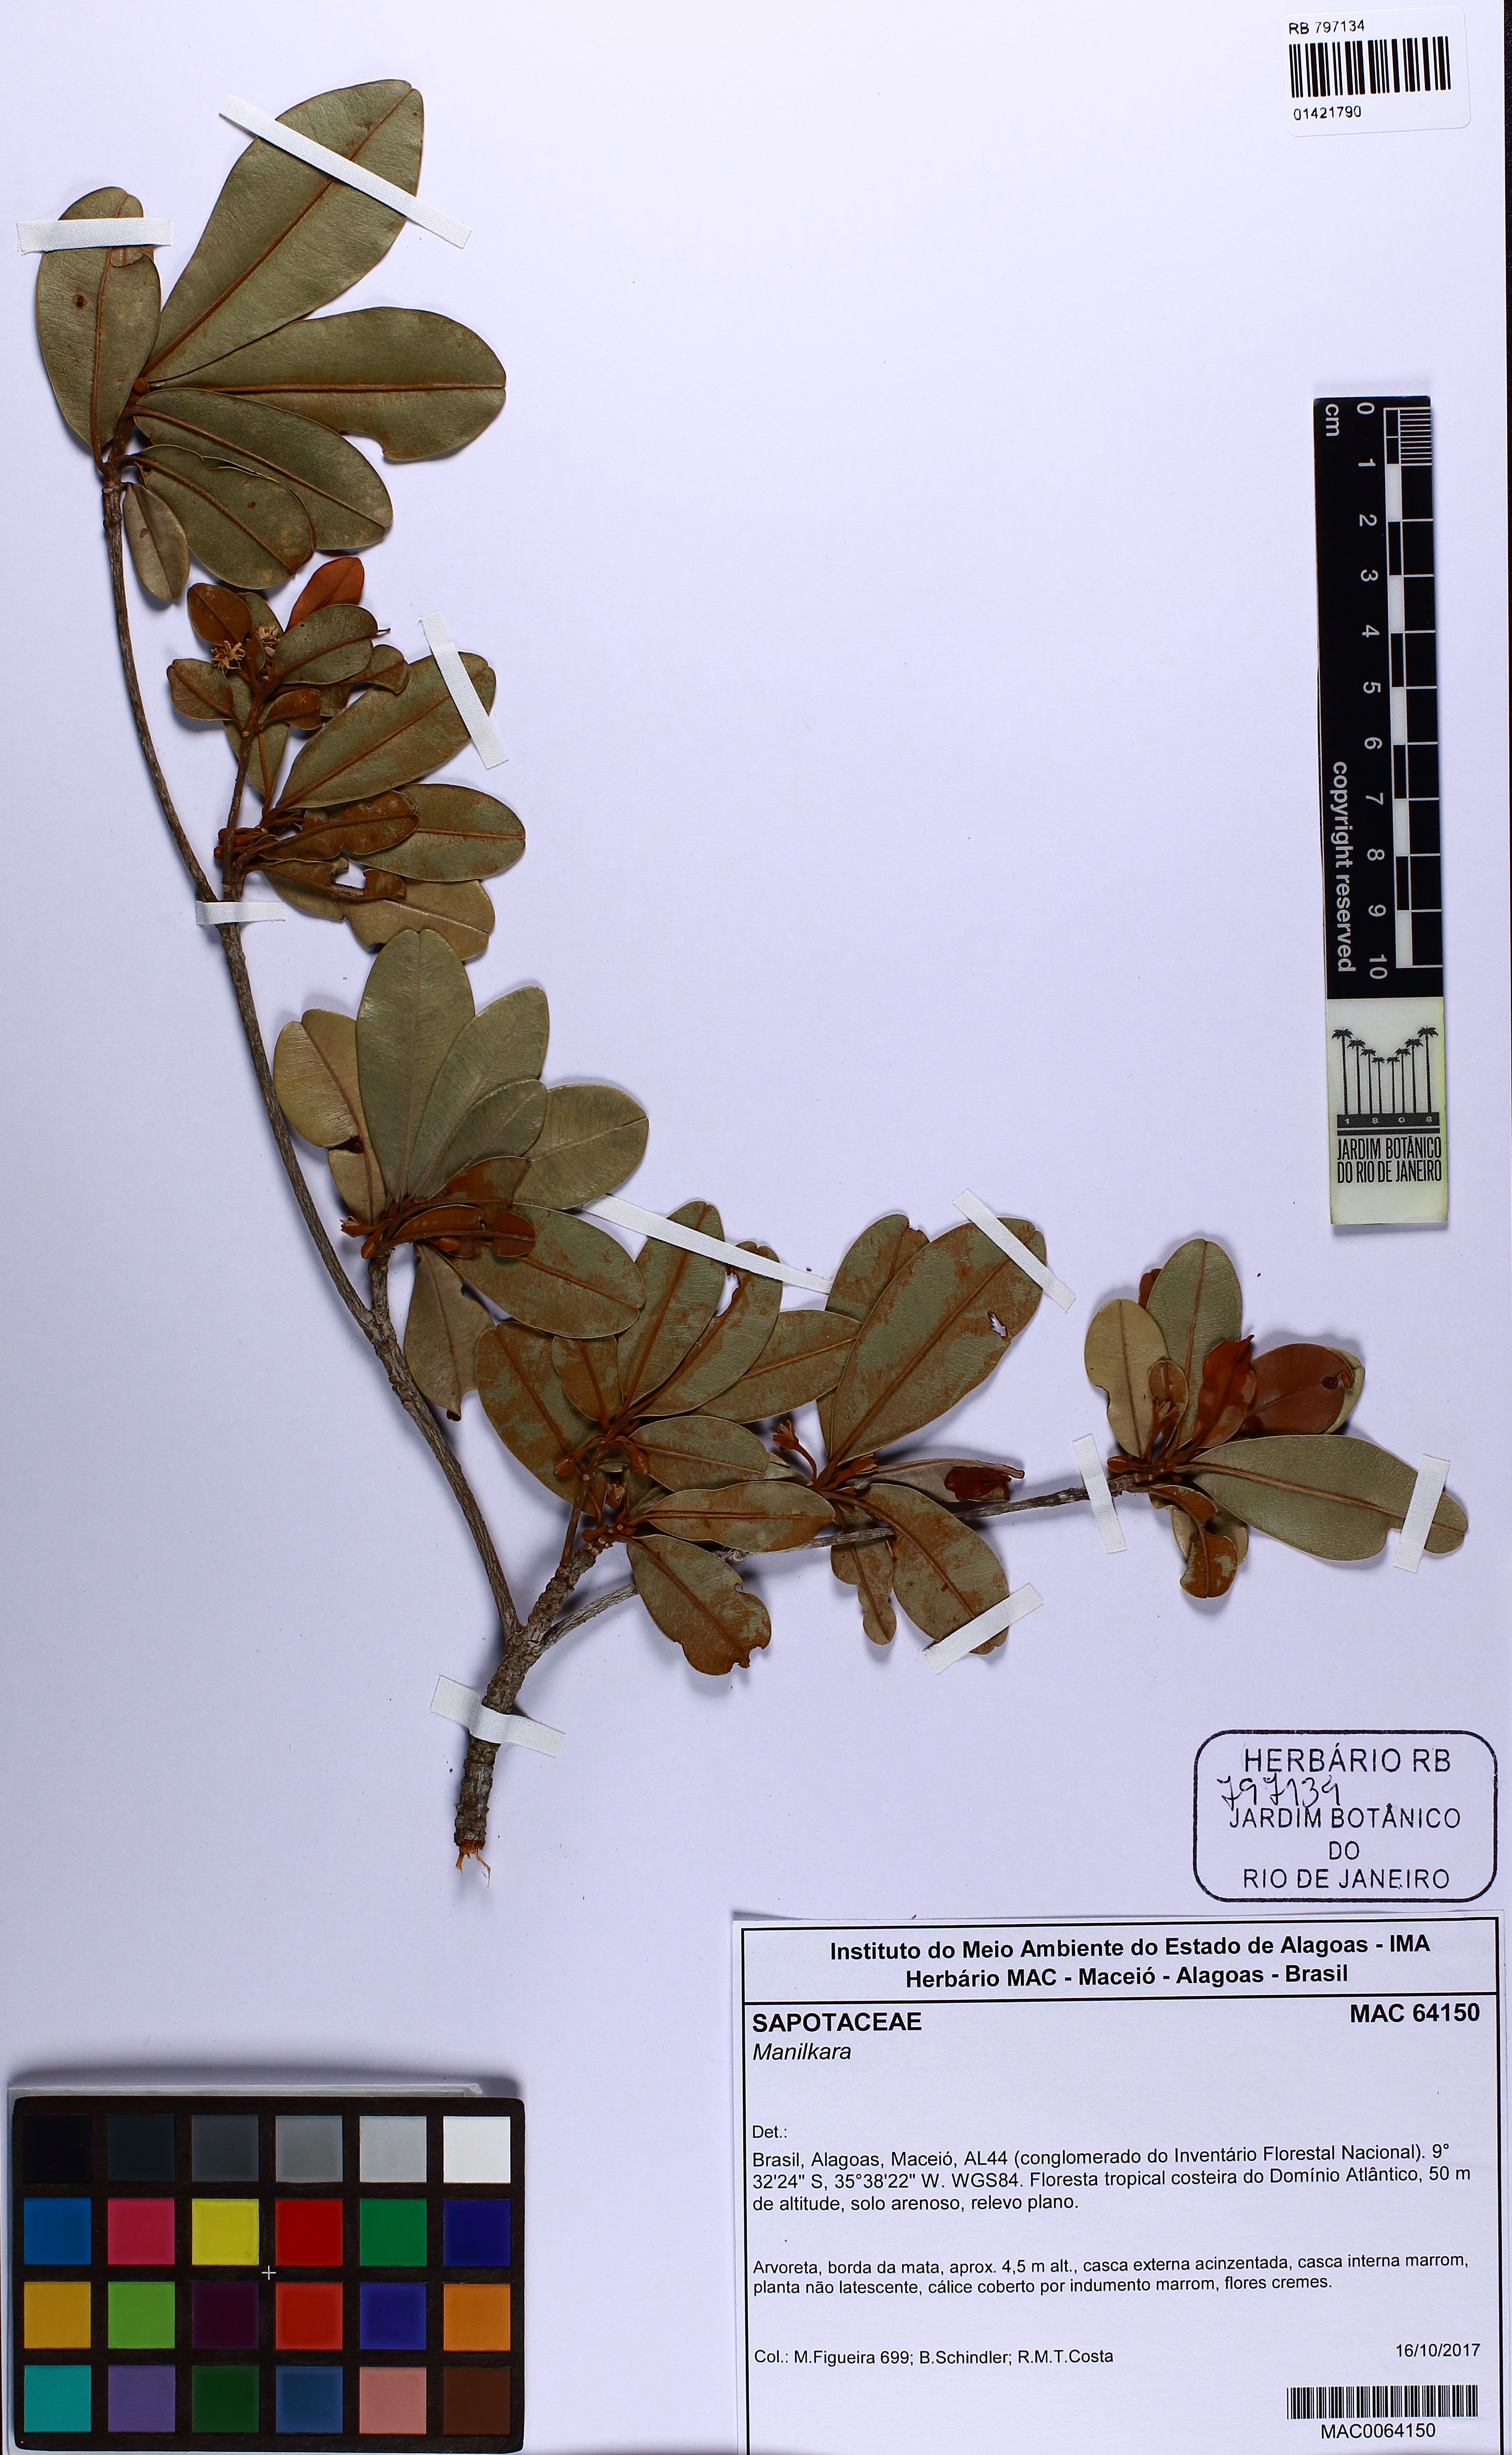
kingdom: Plantae
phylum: Tracheophyta
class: Magnoliopsida
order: Ericales
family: Sapotaceae
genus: Manilkara
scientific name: Manilkara
